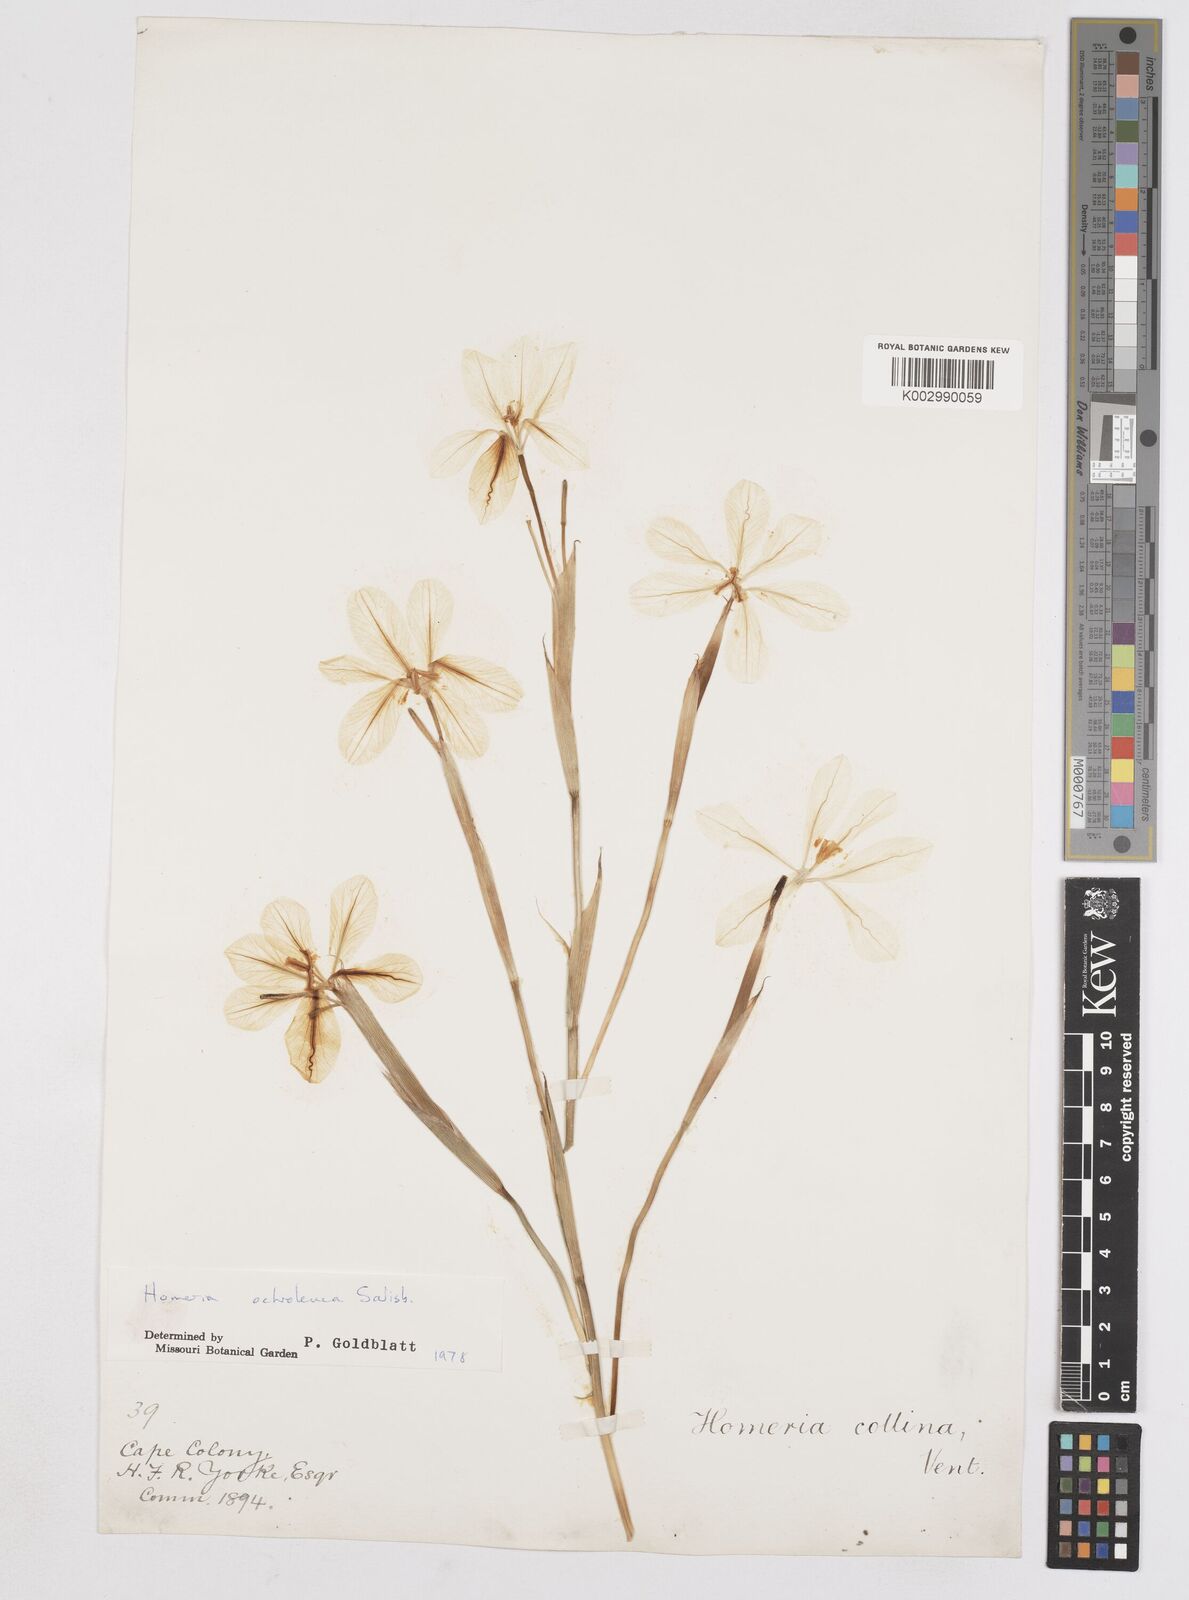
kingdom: Plantae
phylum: Tracheophyta
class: Liliopsida
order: Asparagales
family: Iridaceae
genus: Moraea
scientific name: Moraea ochroleuca
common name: Red tulp
